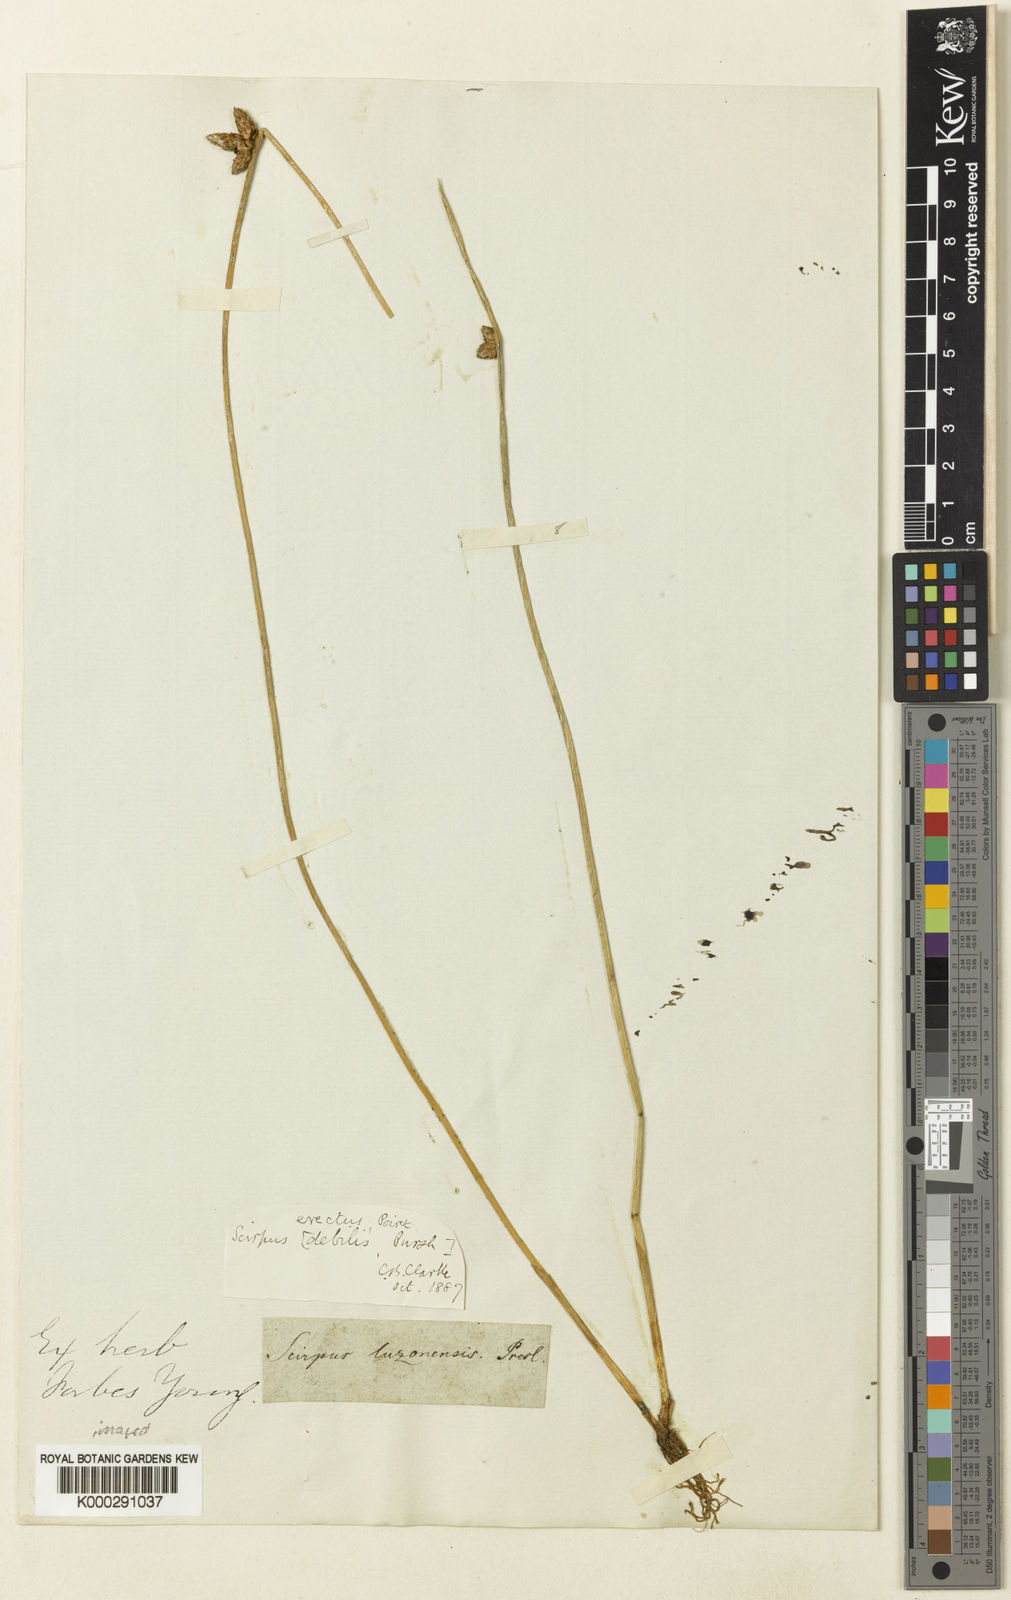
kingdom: Plantae
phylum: Tracheophyta
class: Liliopsida
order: Poales
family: Cyperaceae
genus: Schoenoplectiella
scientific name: Schoenoplectiella juncoides
